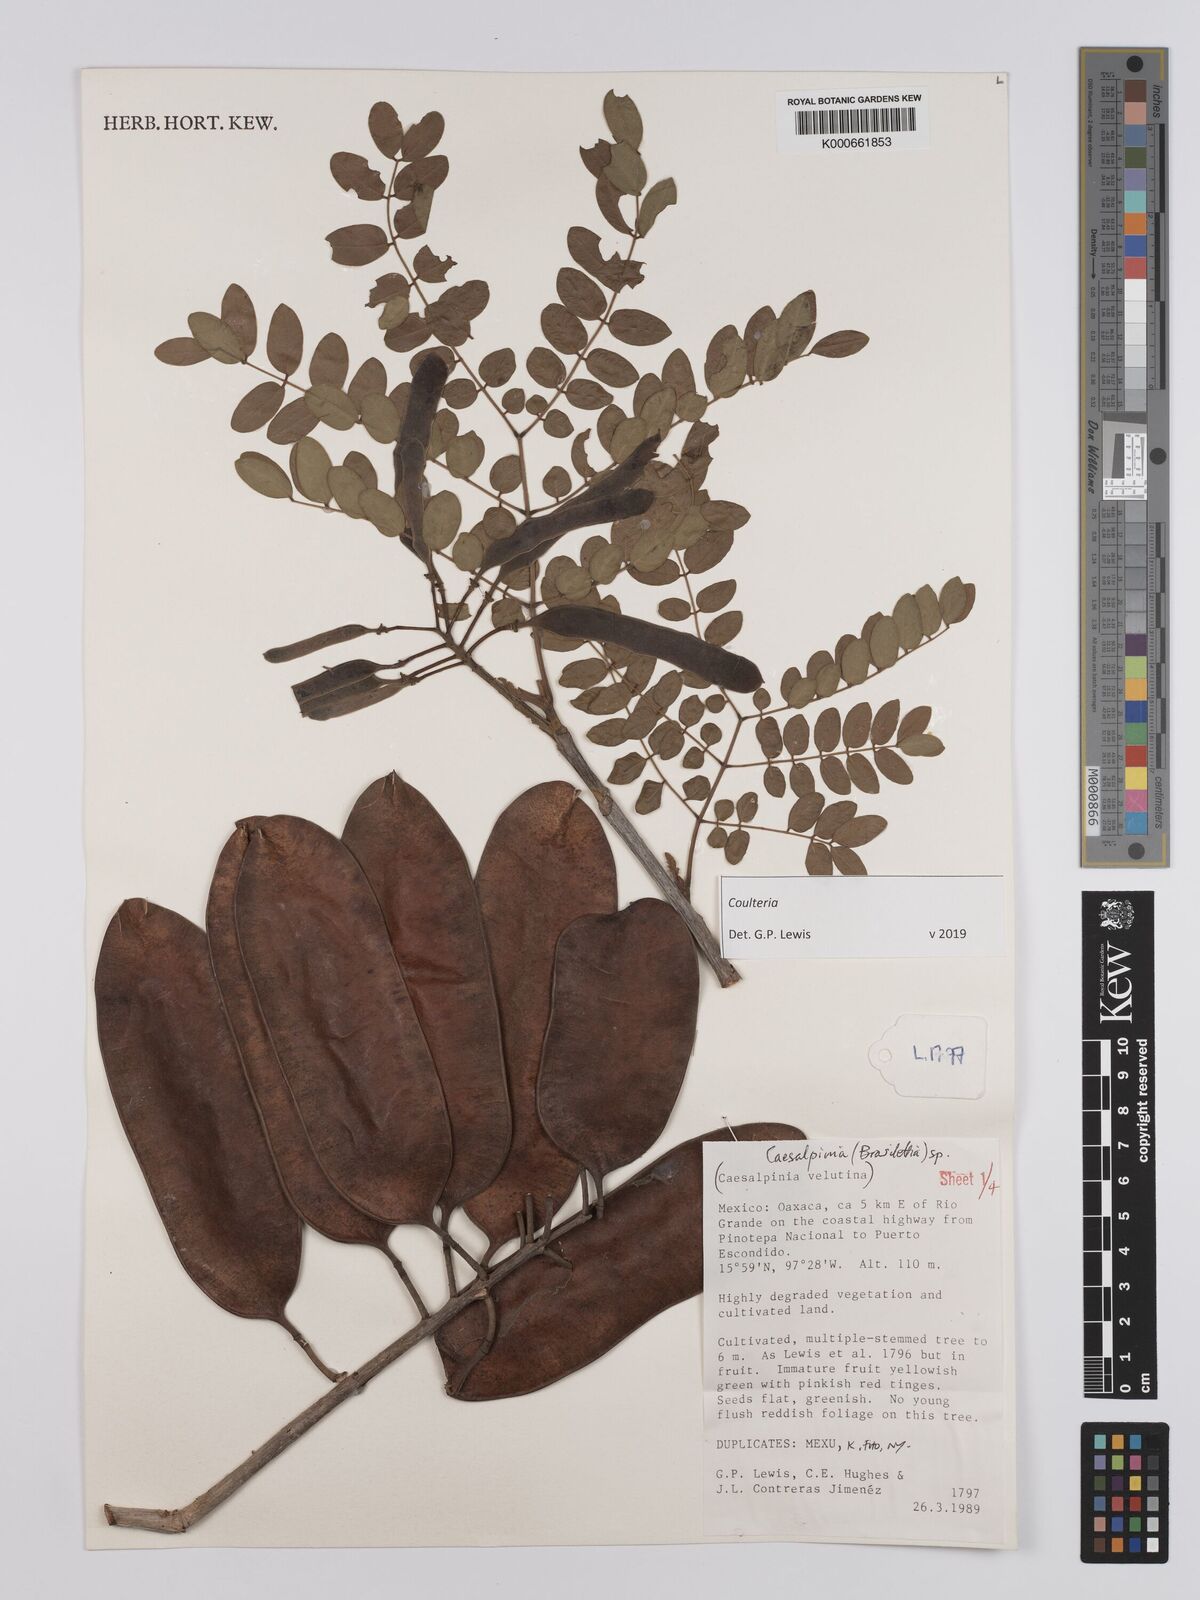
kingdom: Plantae
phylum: Tracheophyta
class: Magnoliopsida
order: Fabales
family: Fabaceae
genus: Coulteria
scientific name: Coulteria
